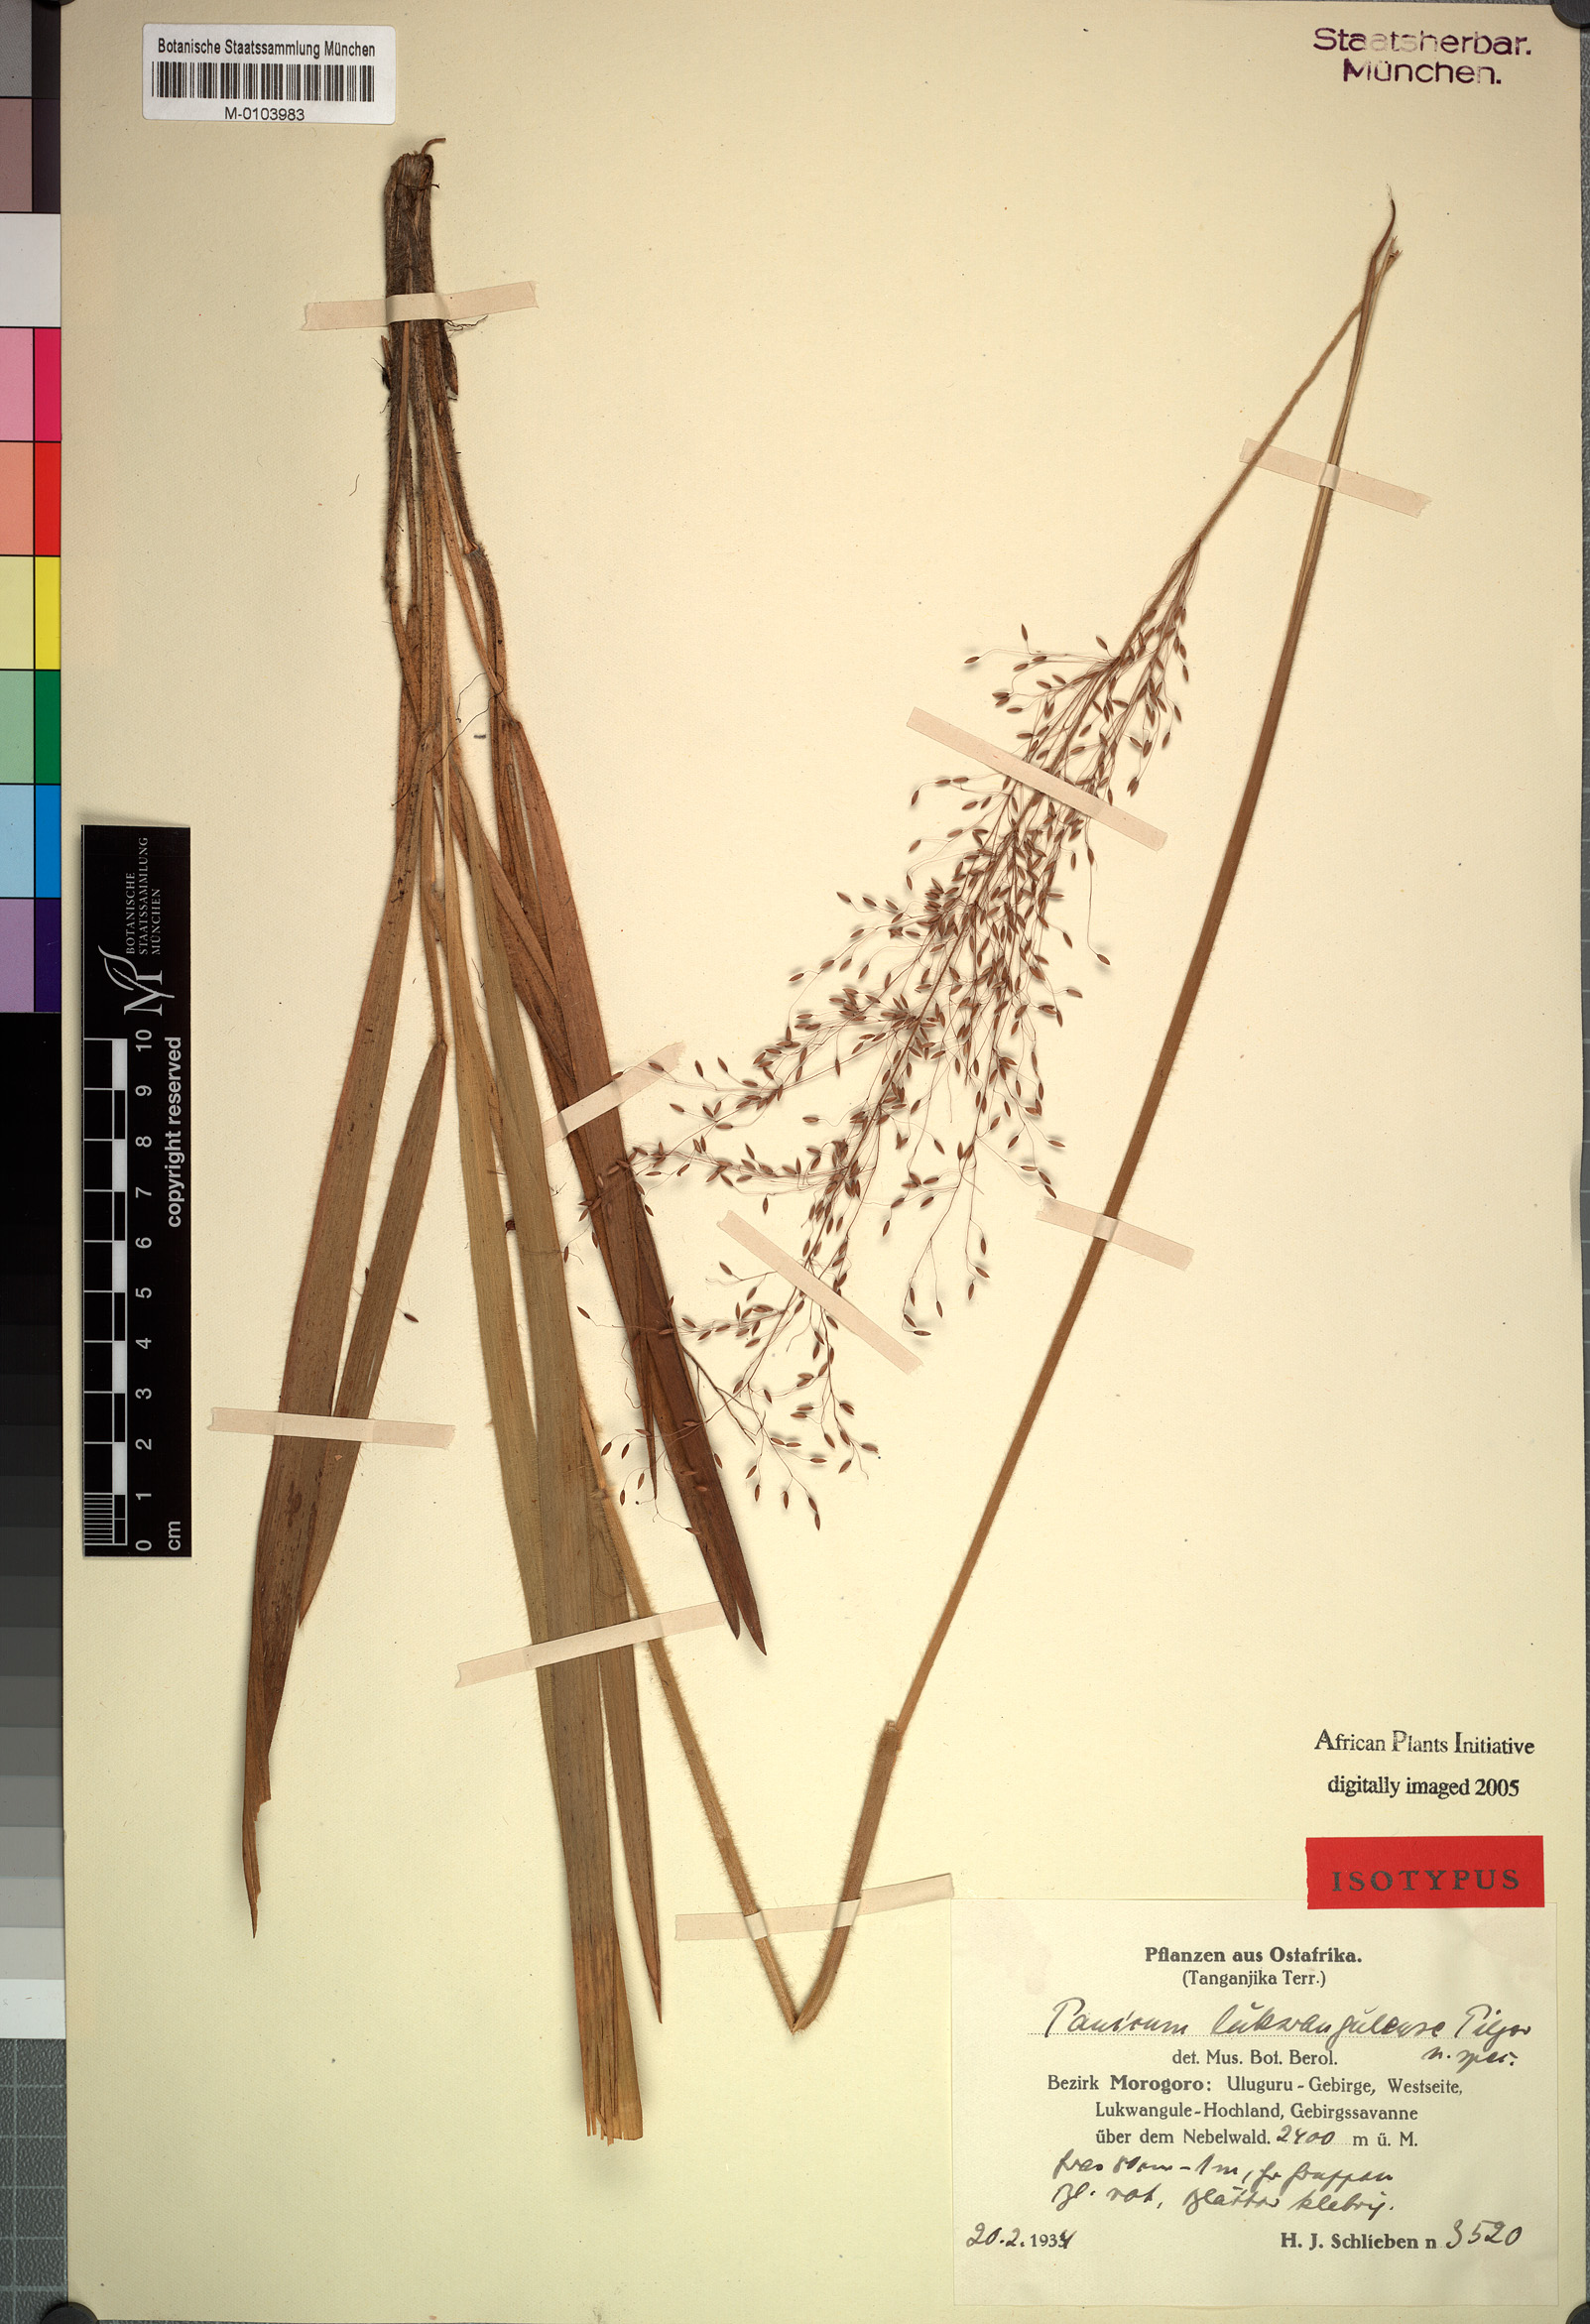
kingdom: Plantae
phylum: Tracheophyta
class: Liliopsida
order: Poales
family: Poaceae
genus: Megathyrsus
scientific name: Megathyrsus maximus
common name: Guineagrass
